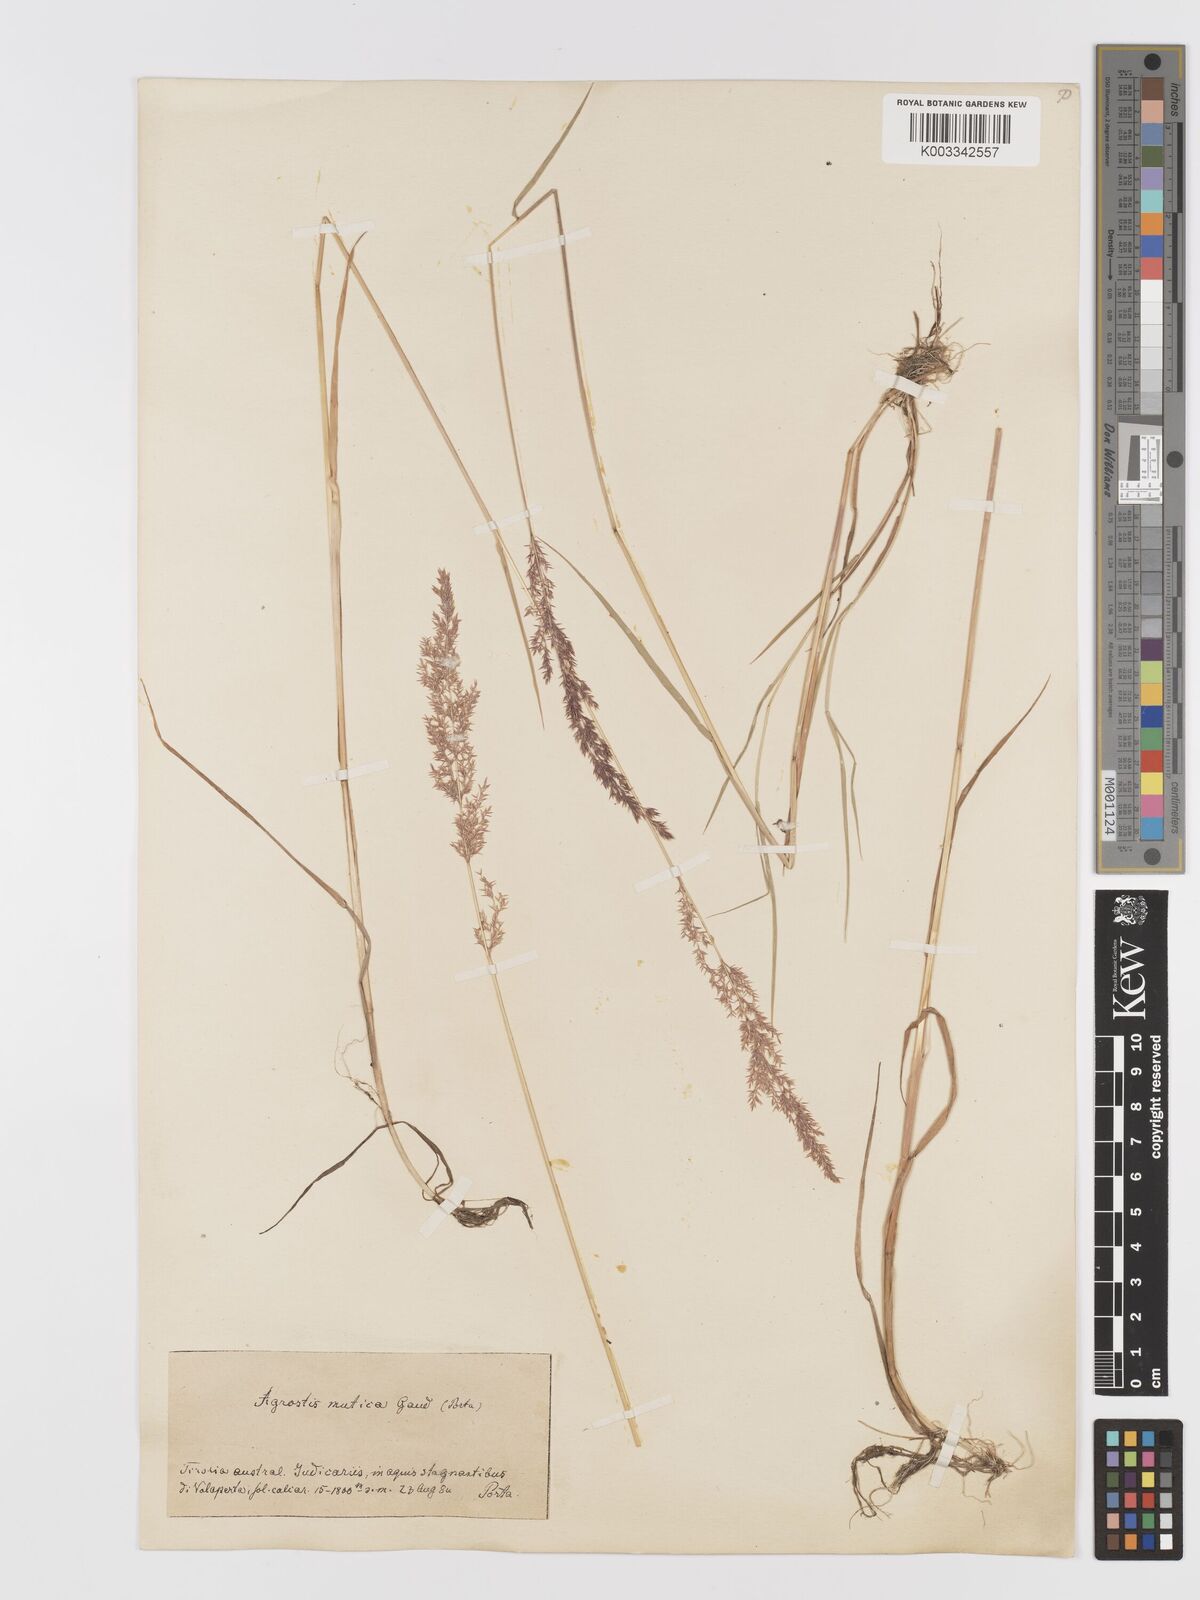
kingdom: Plantae
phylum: Tracheophyta
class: Liliopsida
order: Poales
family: Poaceae
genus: Agrostis
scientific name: Agrostis
